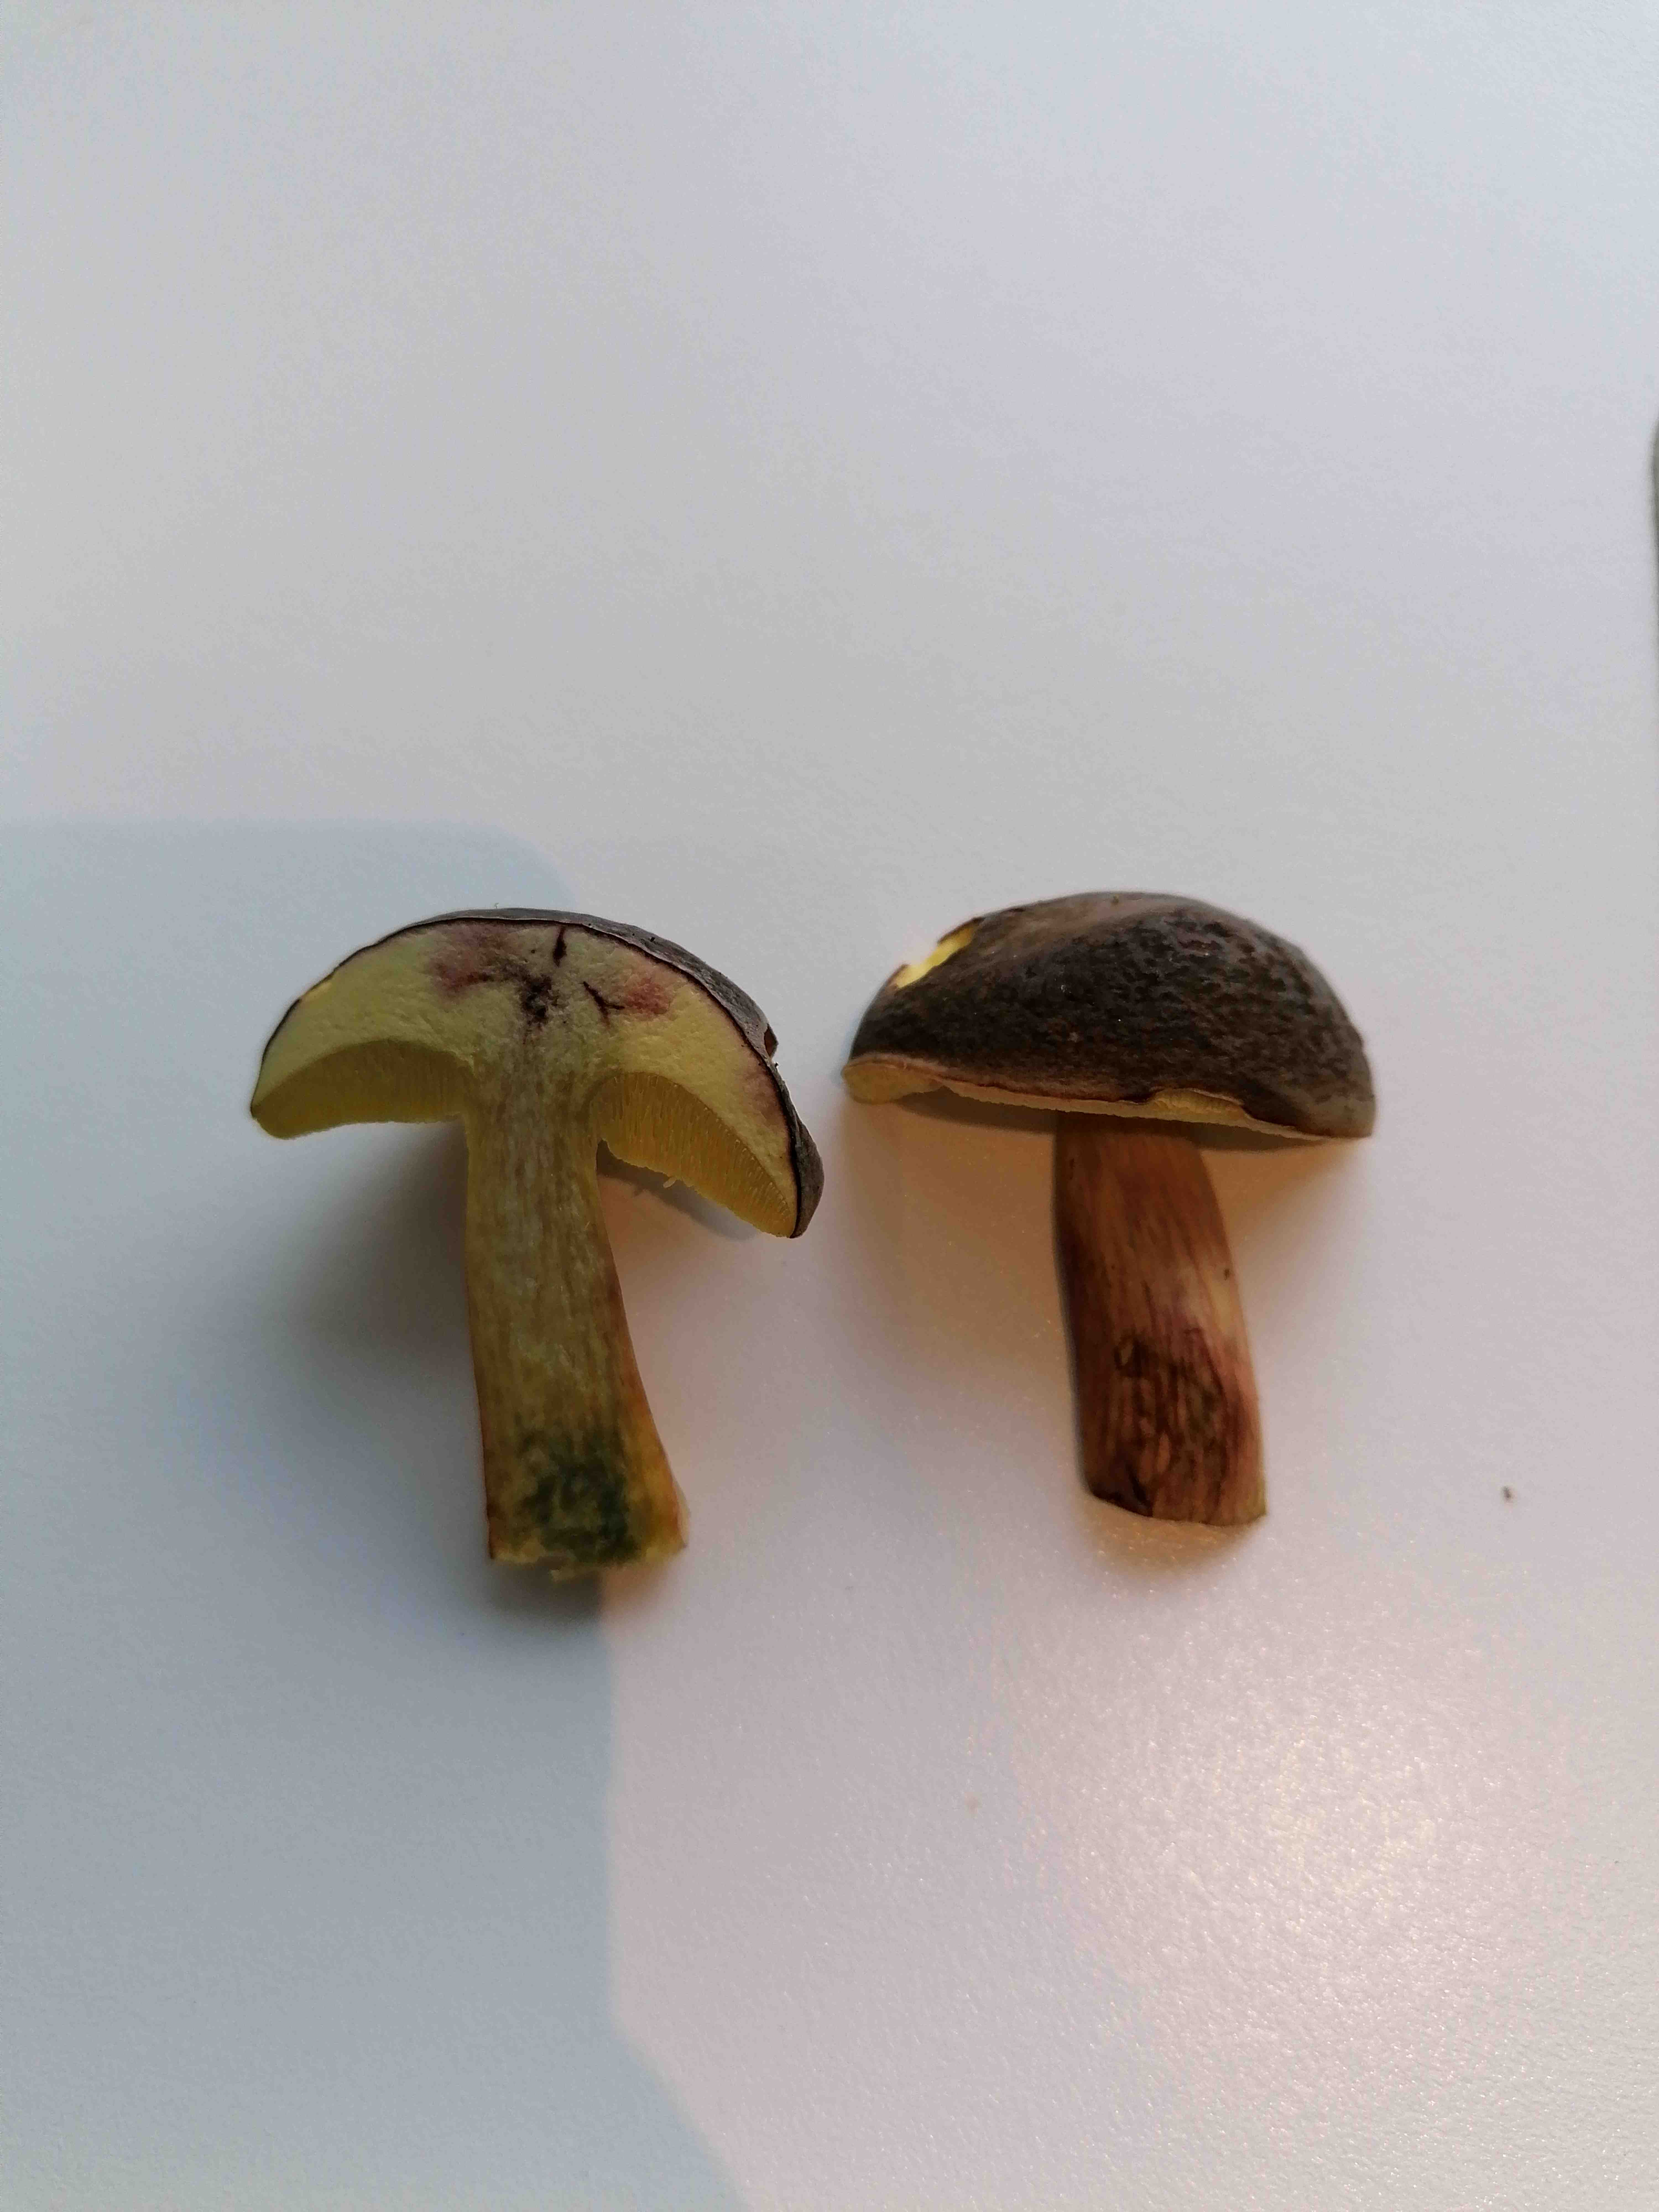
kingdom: Fungi
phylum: Basidiomycota
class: Agaricomycetes
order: Boletales
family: Boletaceae
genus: Xerocomellus
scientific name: Xerocomellus pruinatus
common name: dugget rørhat
